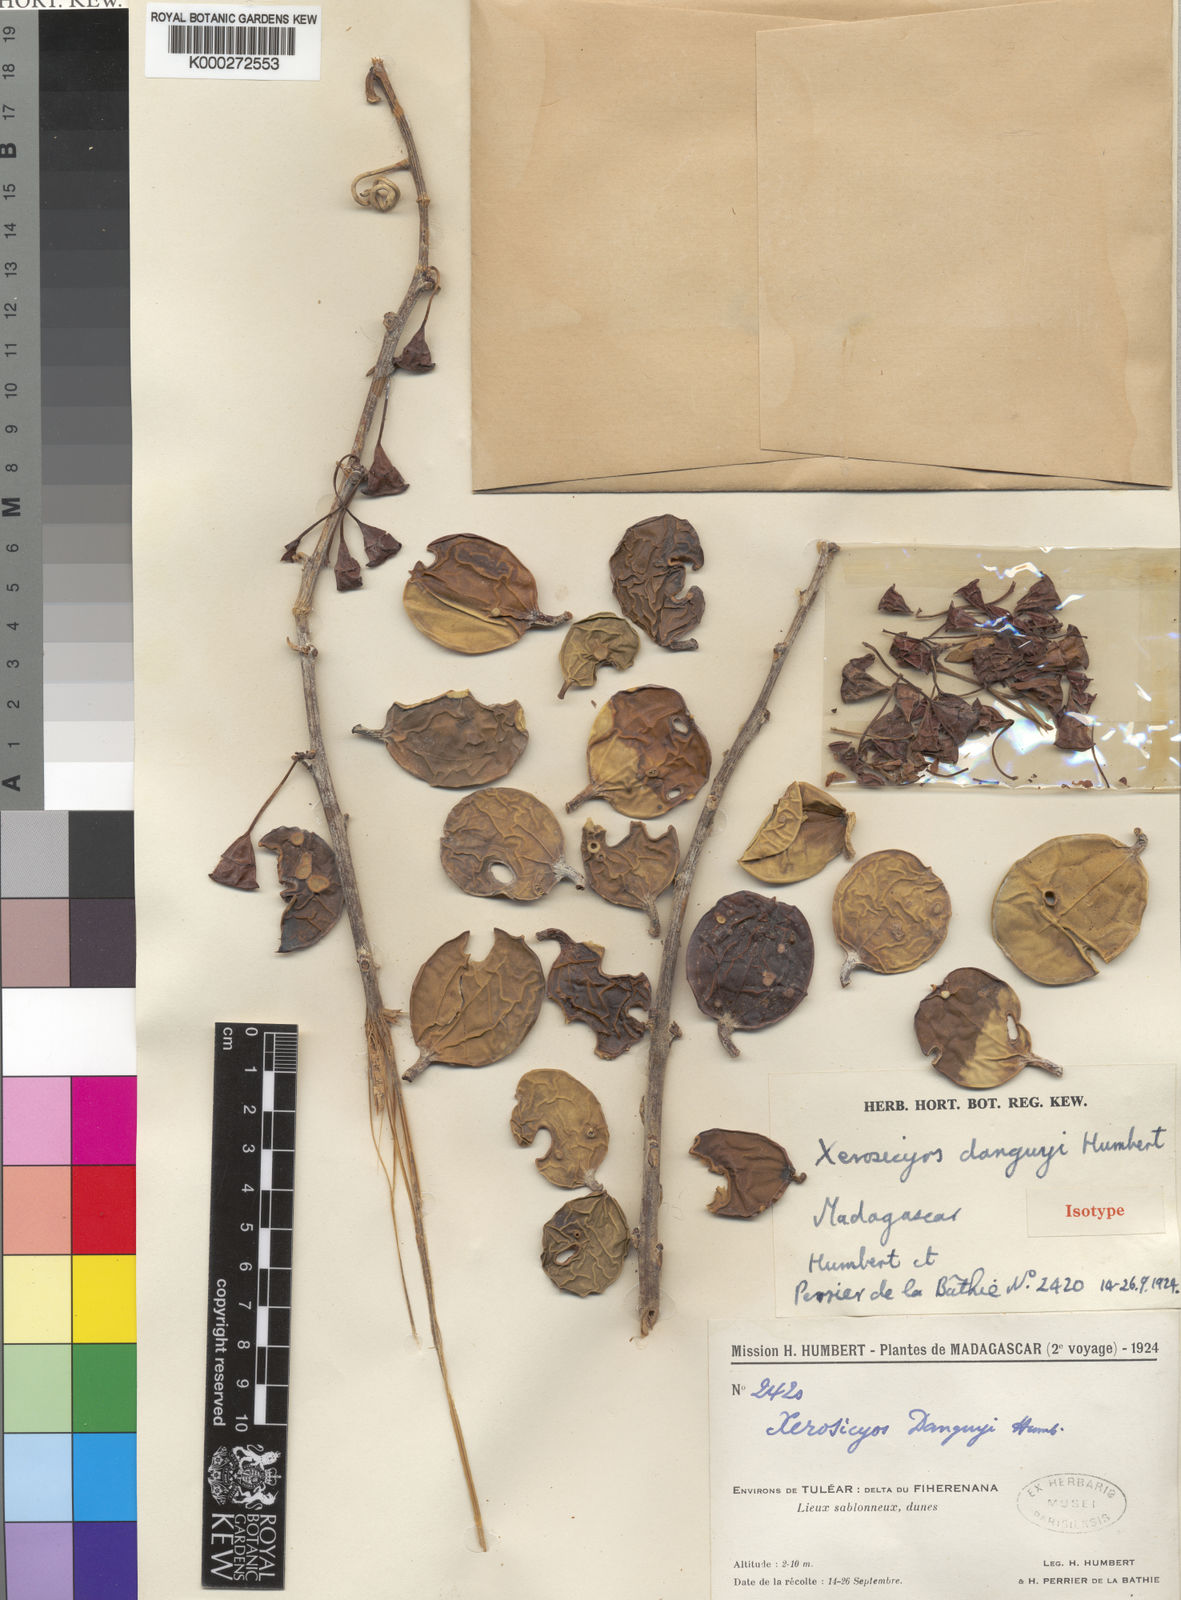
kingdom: Plantae
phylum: Tracheophyta
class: Magnoliopsida
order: Cucurbitales
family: Cucurbitaceae
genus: Xerosicyos
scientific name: Xerosicyos danguyi
